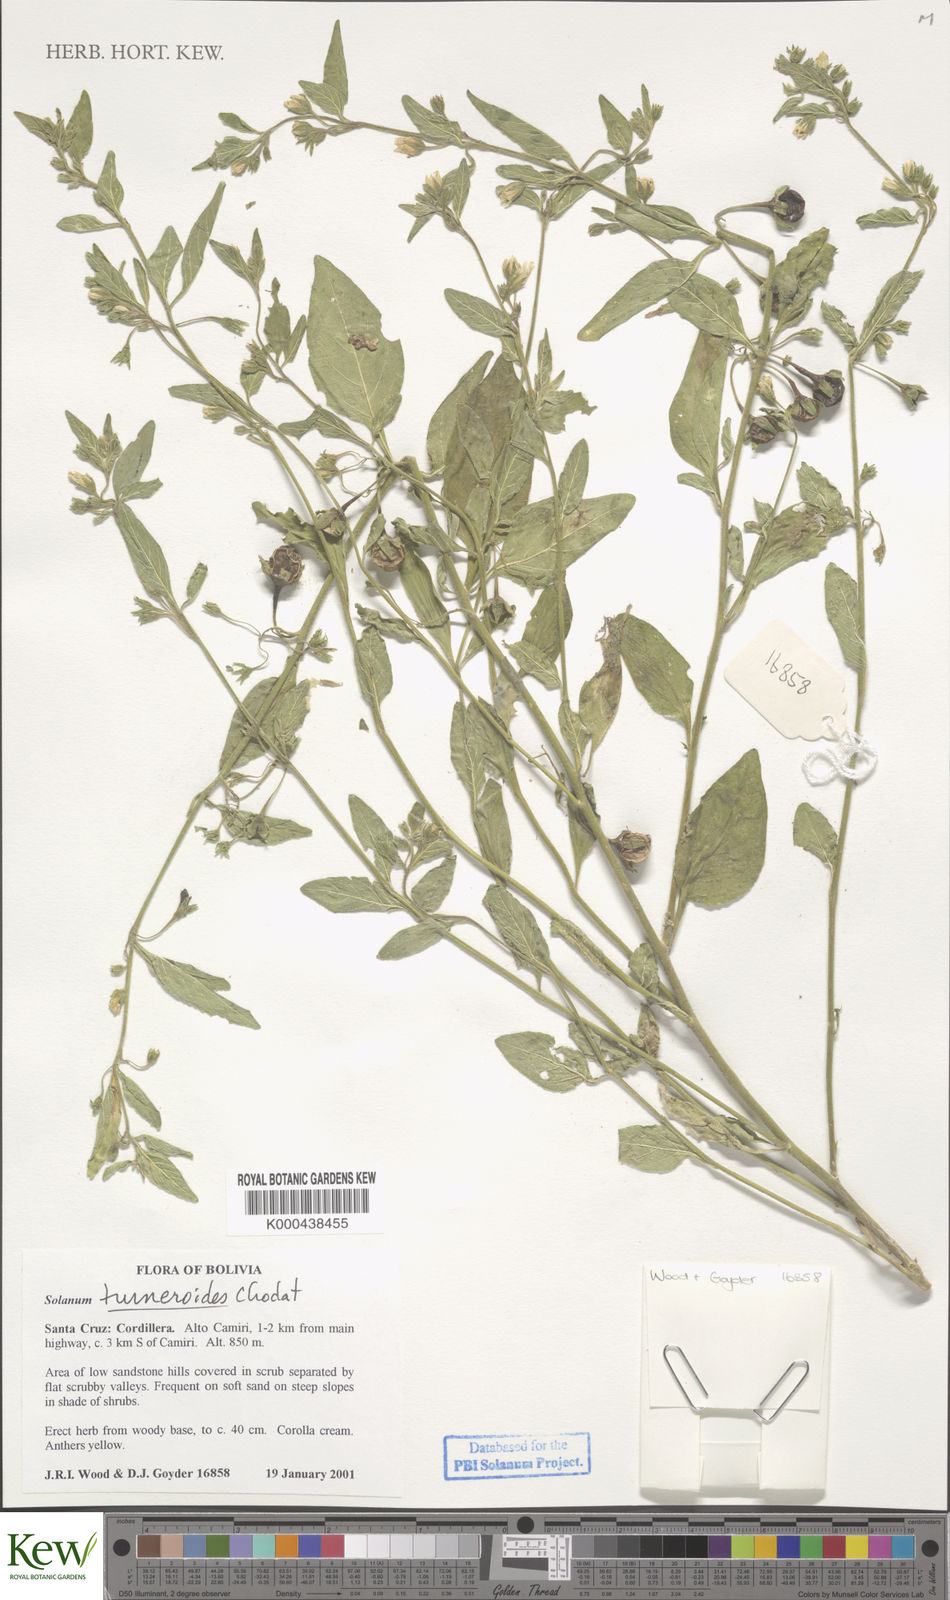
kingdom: Plantae
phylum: Tracheophyta
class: Magnoliopsida
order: Solanales
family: Solanaceae
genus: Solanum
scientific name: Solanum turneroides
